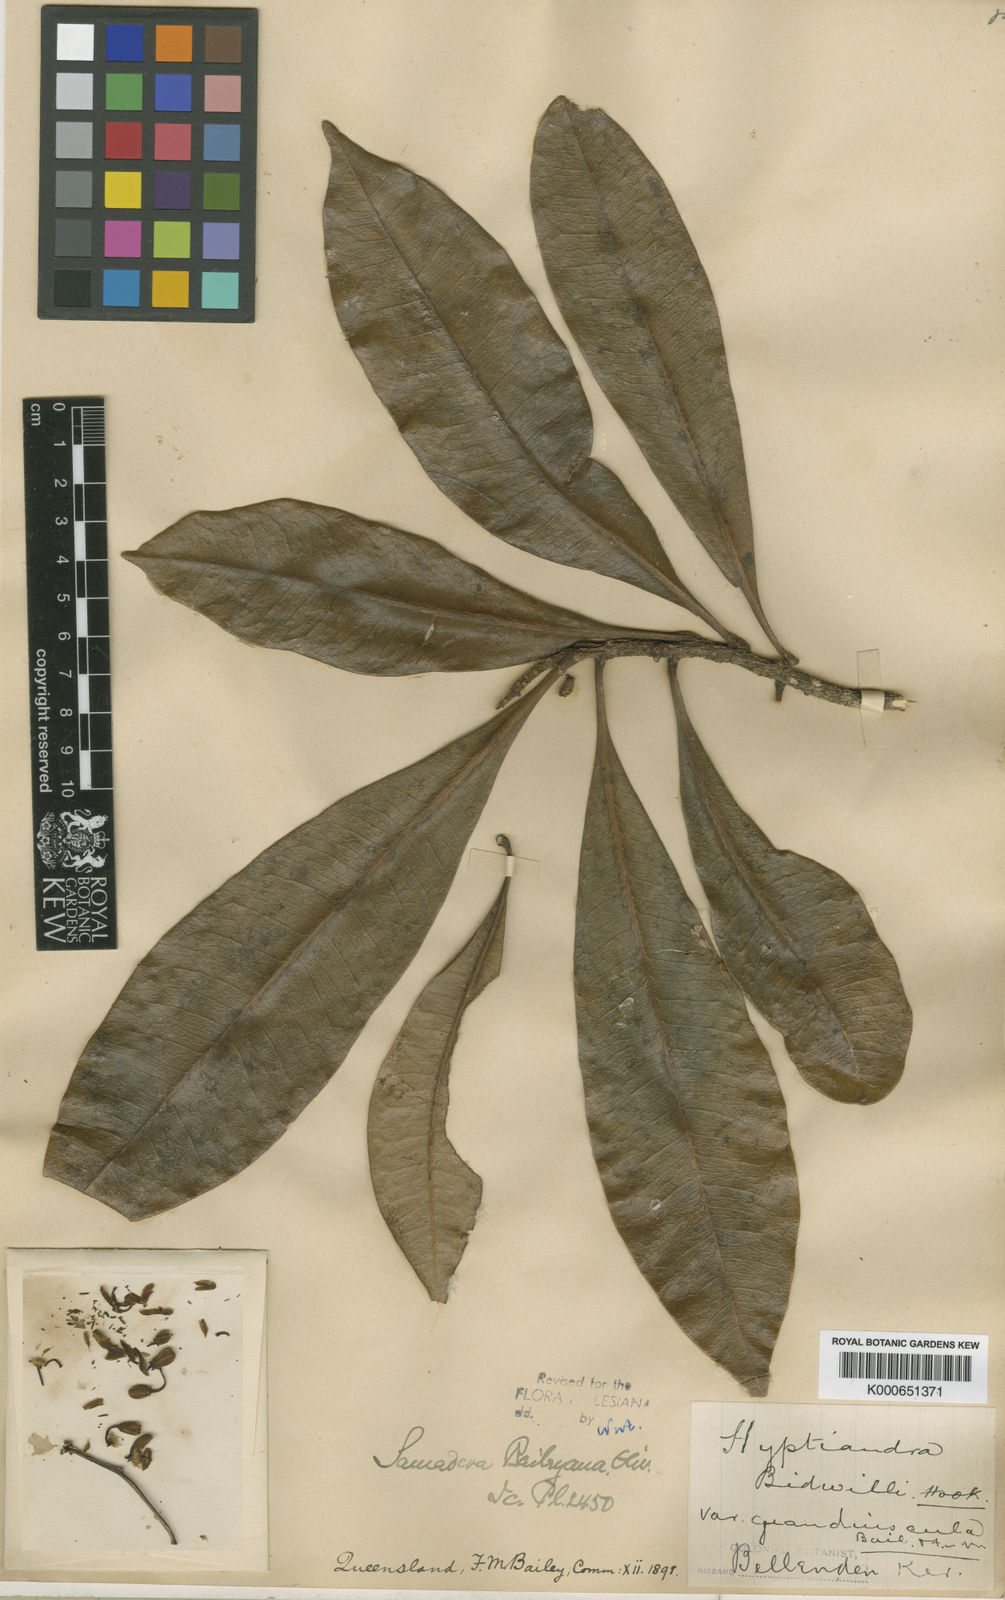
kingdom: Plantae
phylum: Tracheophyta
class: Magnoliopsida
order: Sapindales
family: Simaroubaceae
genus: Samadera
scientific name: Samadera baileyana
